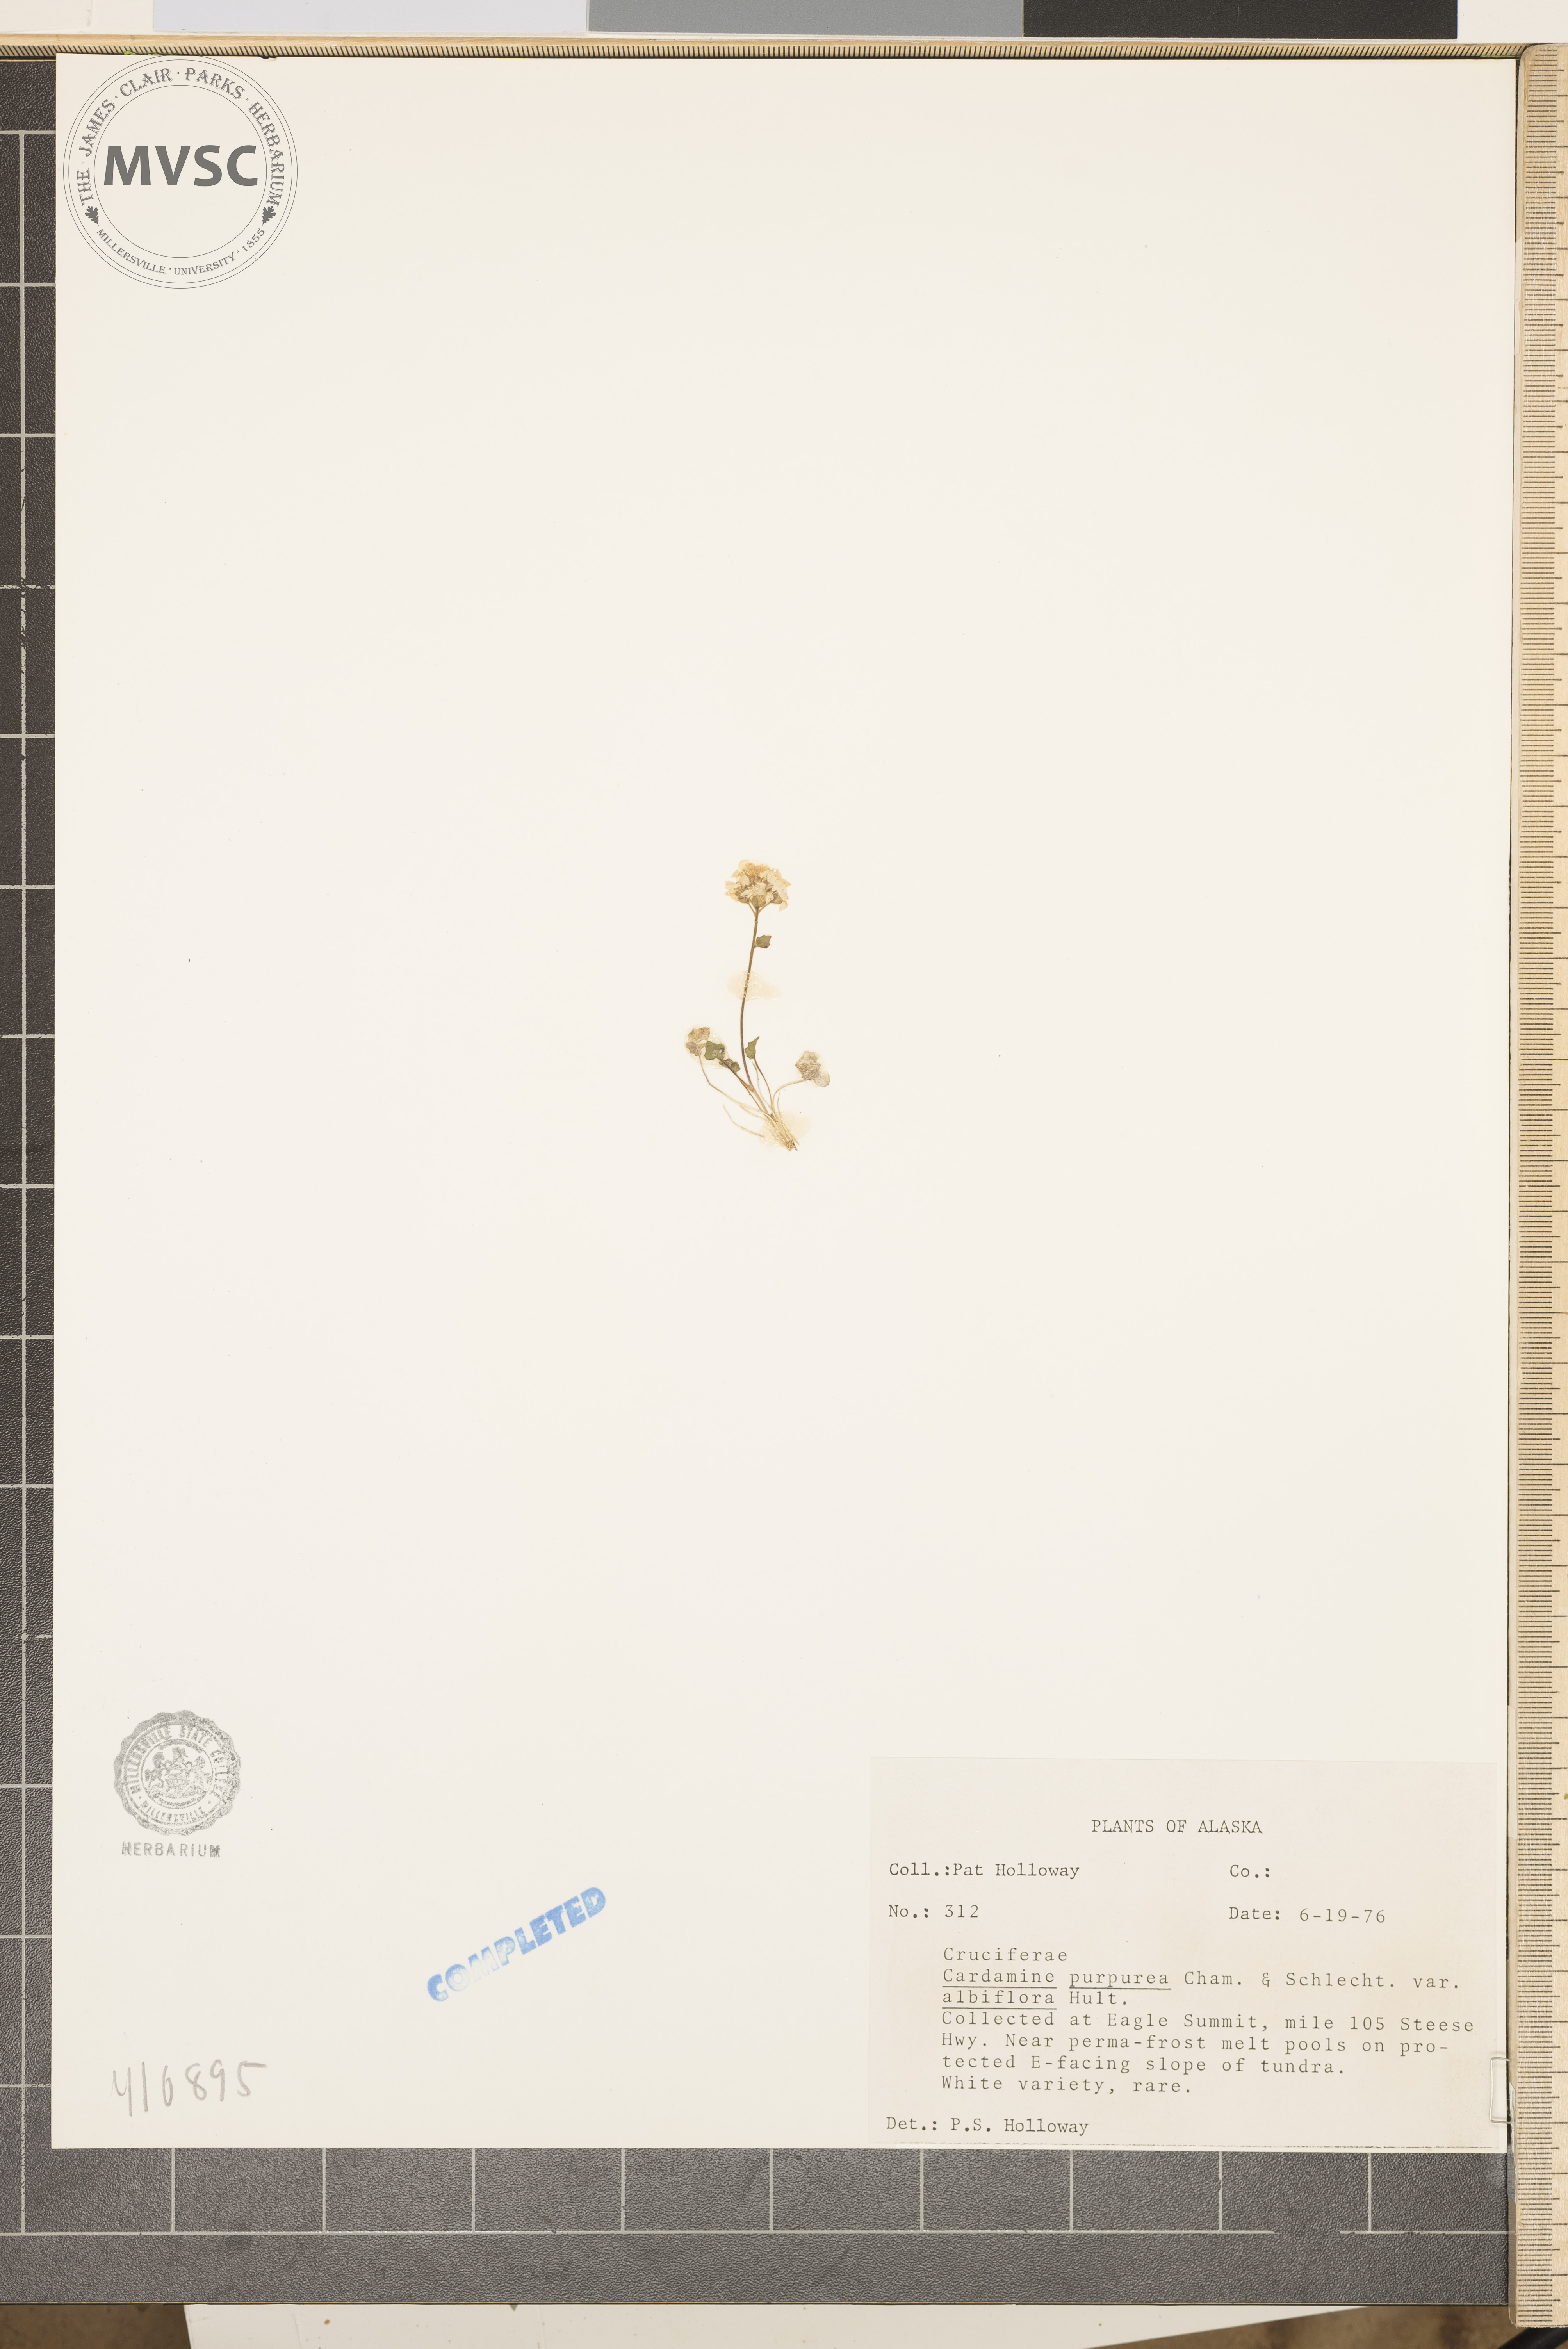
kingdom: Plantae
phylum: Tracheophyta
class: Magnoliopsida
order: Brassicales
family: Brassicaceae
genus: Cardamine
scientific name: Cardamine purpurea
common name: Purple bittercress
